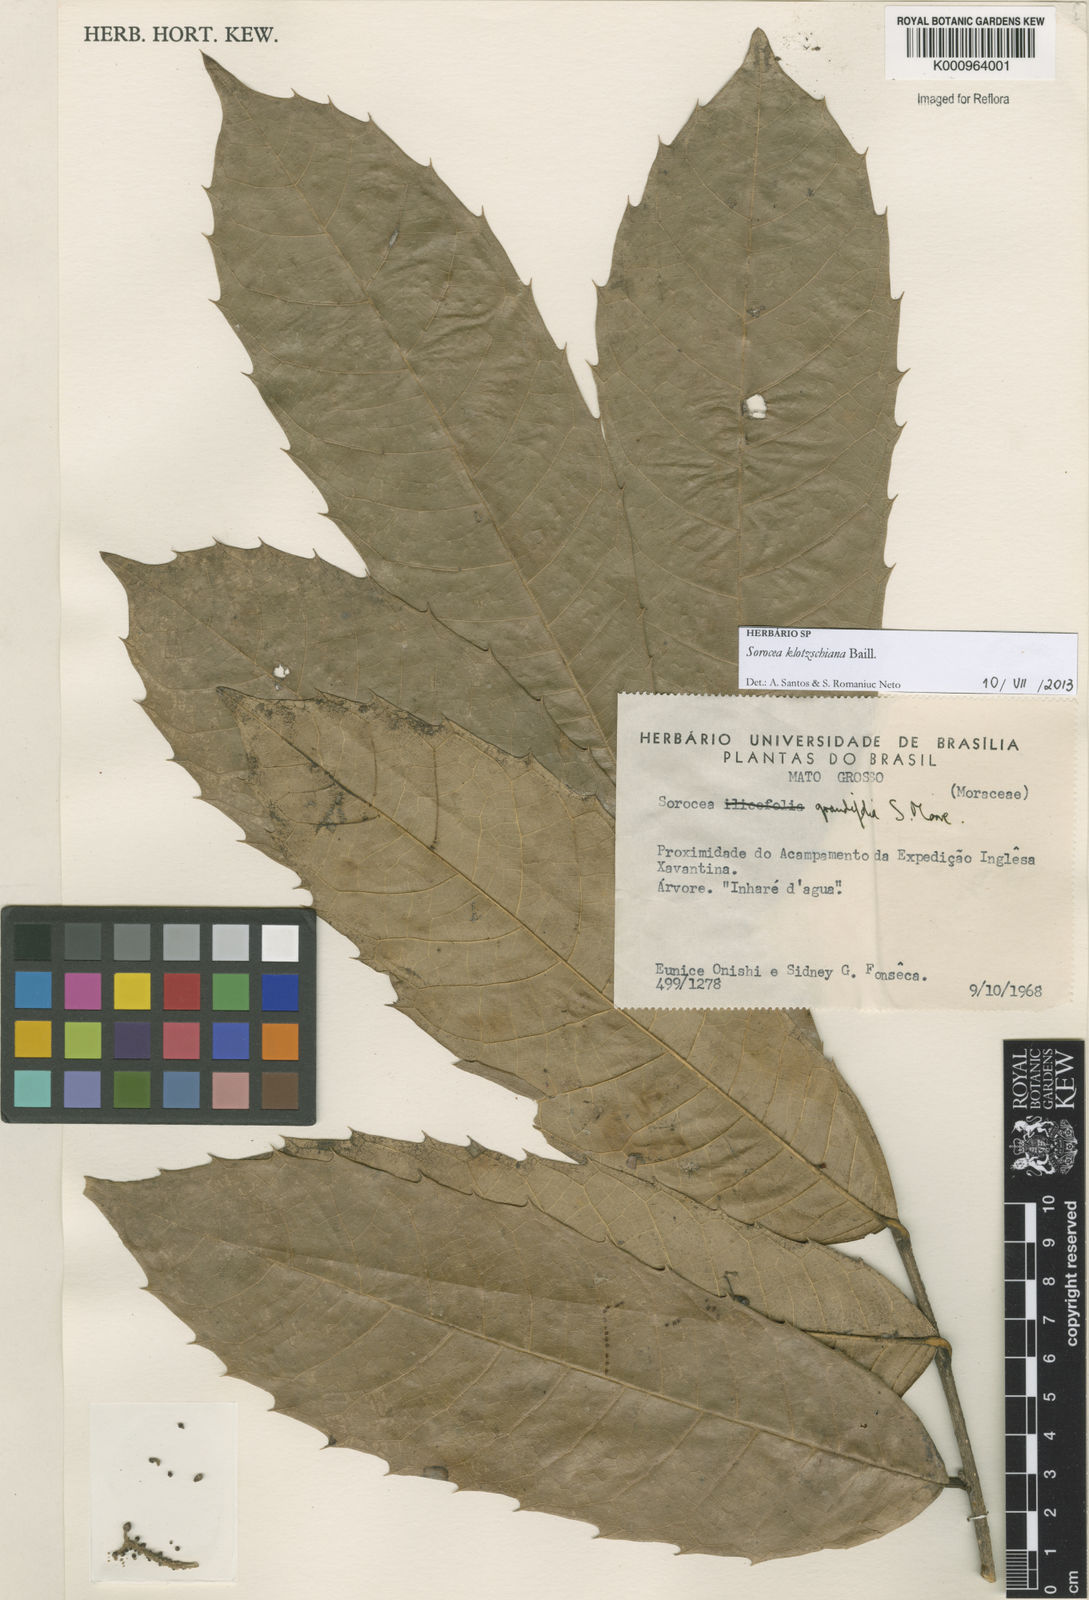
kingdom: Plantae
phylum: Tracheophyta
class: Magnoliopsida
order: Rosales
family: Moraceae
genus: Sorocea
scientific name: Sorocea guilleminiana
